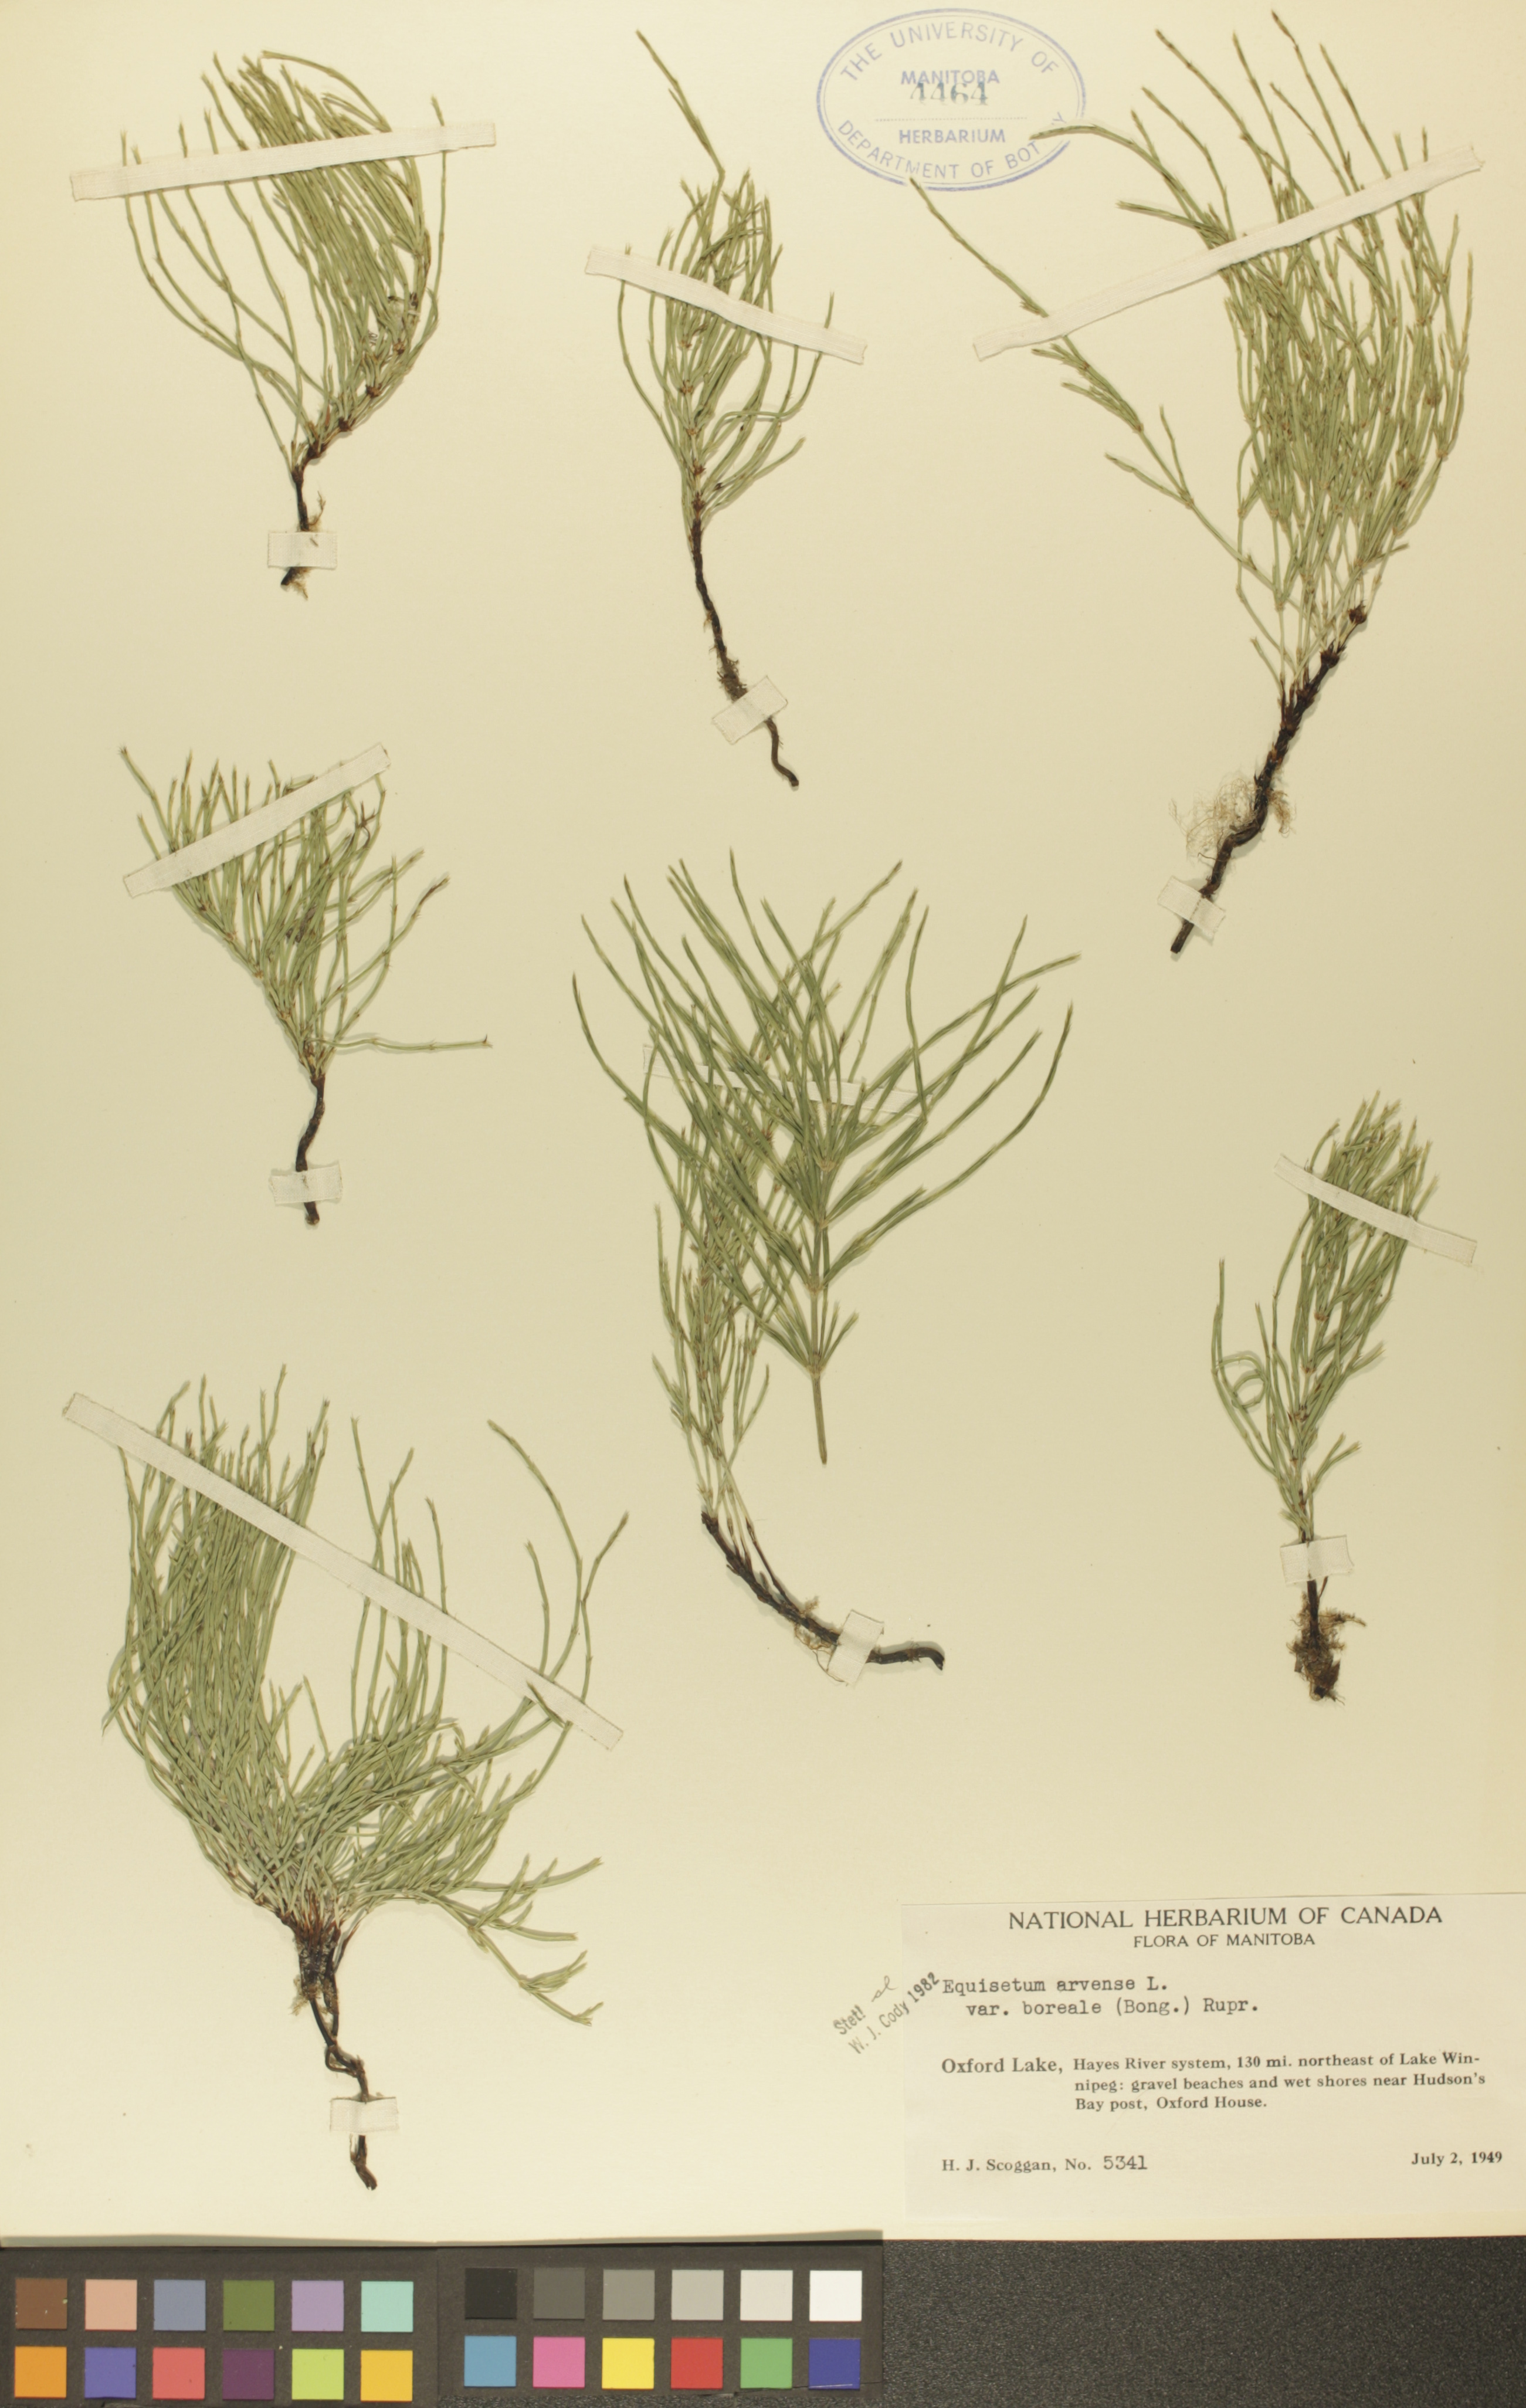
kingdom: Plantae
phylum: Tracheophyta
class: Polypodiopsida
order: Equisetales
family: Equisetaceae
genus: Equisetum
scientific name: Equisetum arvense
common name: Field horsetail
